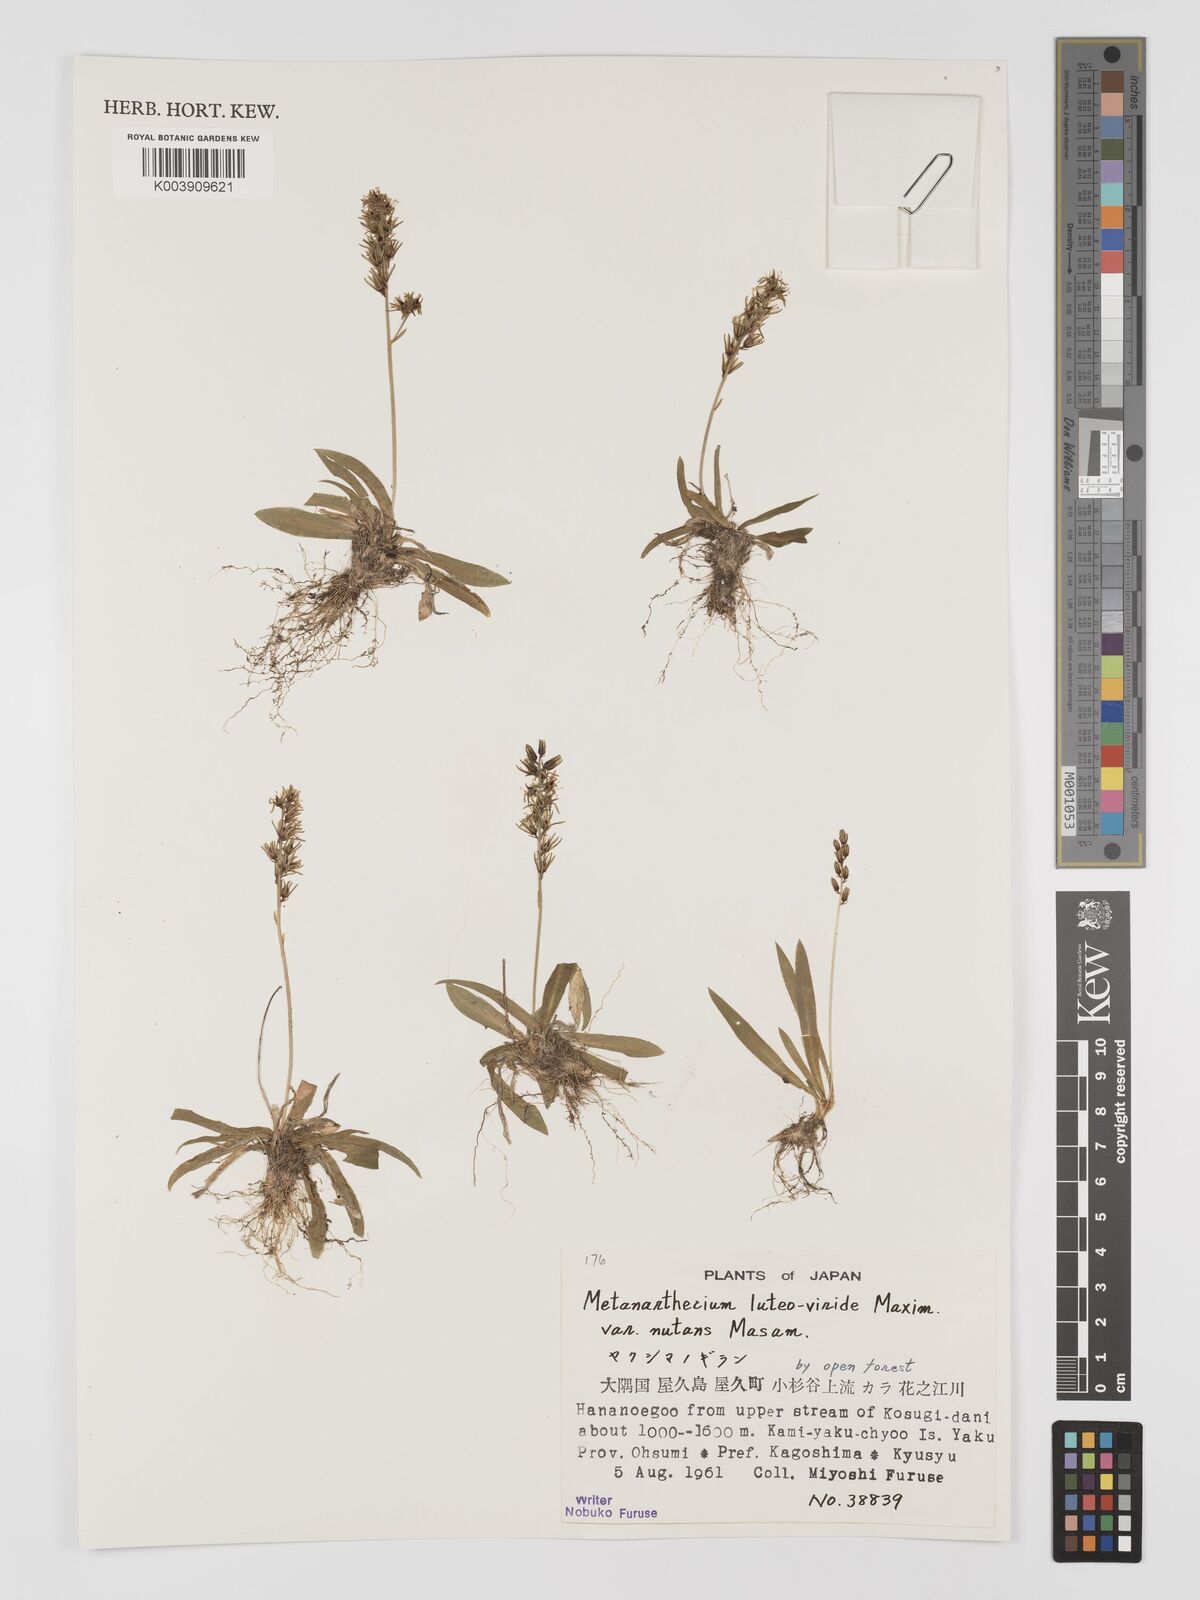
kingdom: Plantae
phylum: Tracheophyta
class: Liliopsida
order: Dioscoreales
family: Nartheciaceae
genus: Metanarthecium
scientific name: Metanarthecium luteoviride
